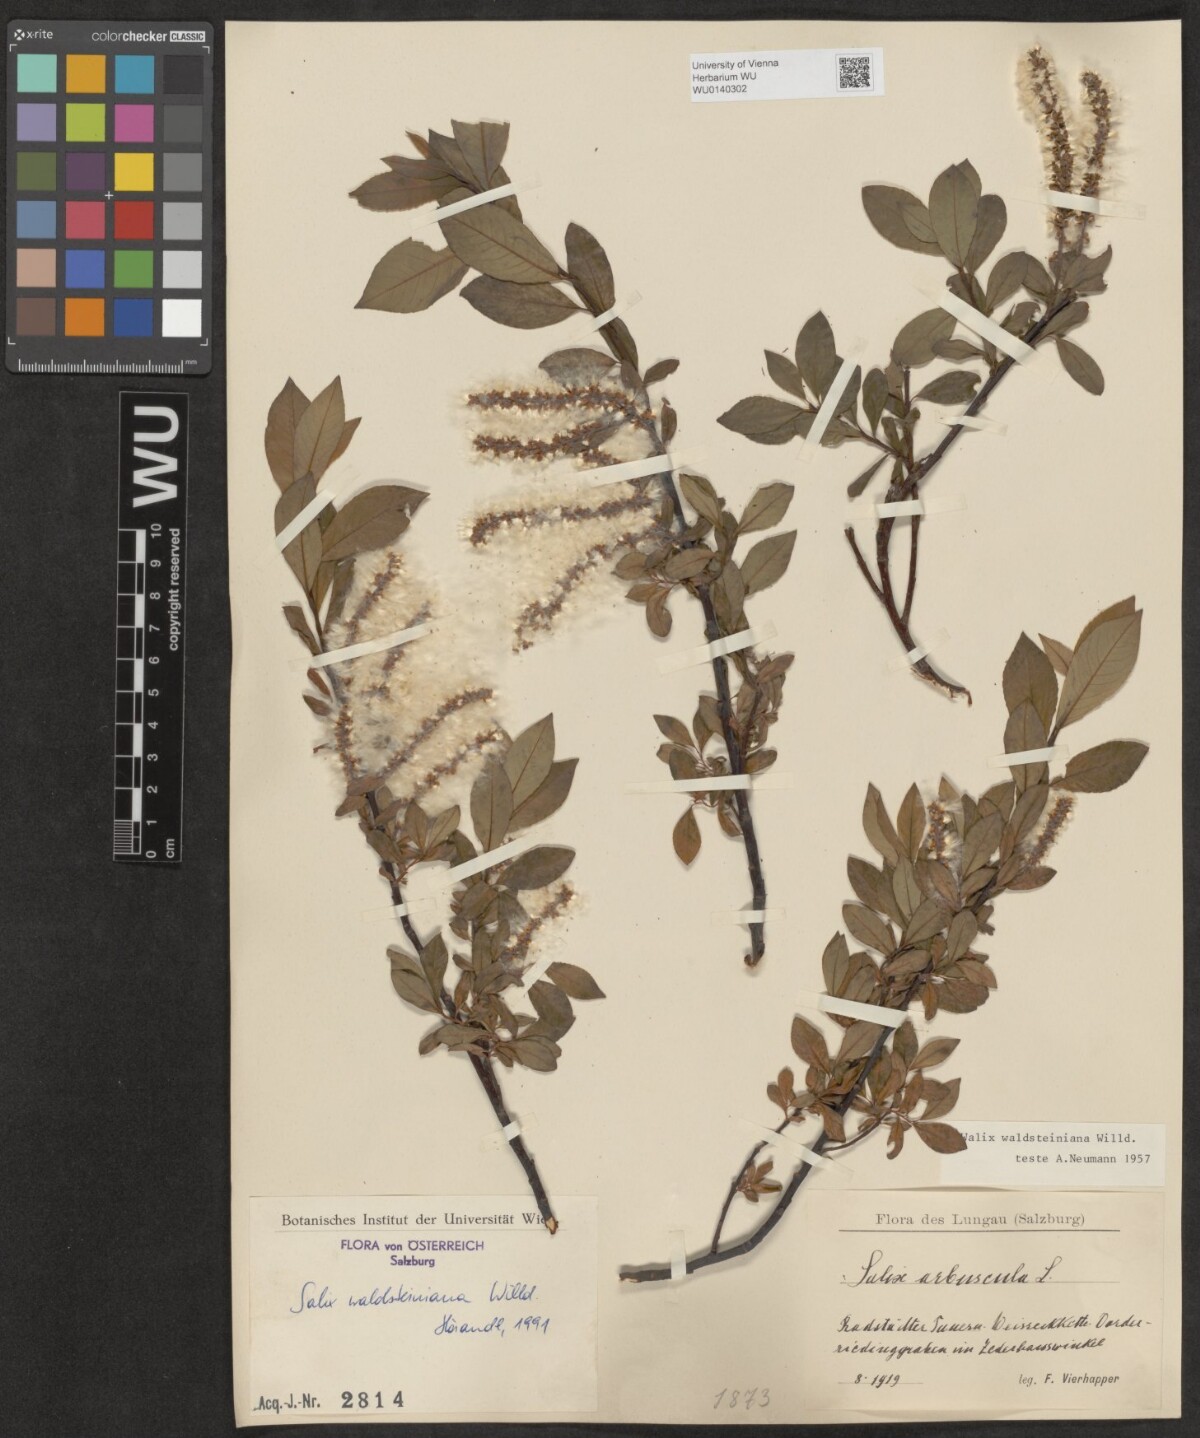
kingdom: Plantae
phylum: Tracheophyta
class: Magnoliopsida
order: Malpighiales
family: Salicaceae
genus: Salix
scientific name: Salix waldsteiniana
